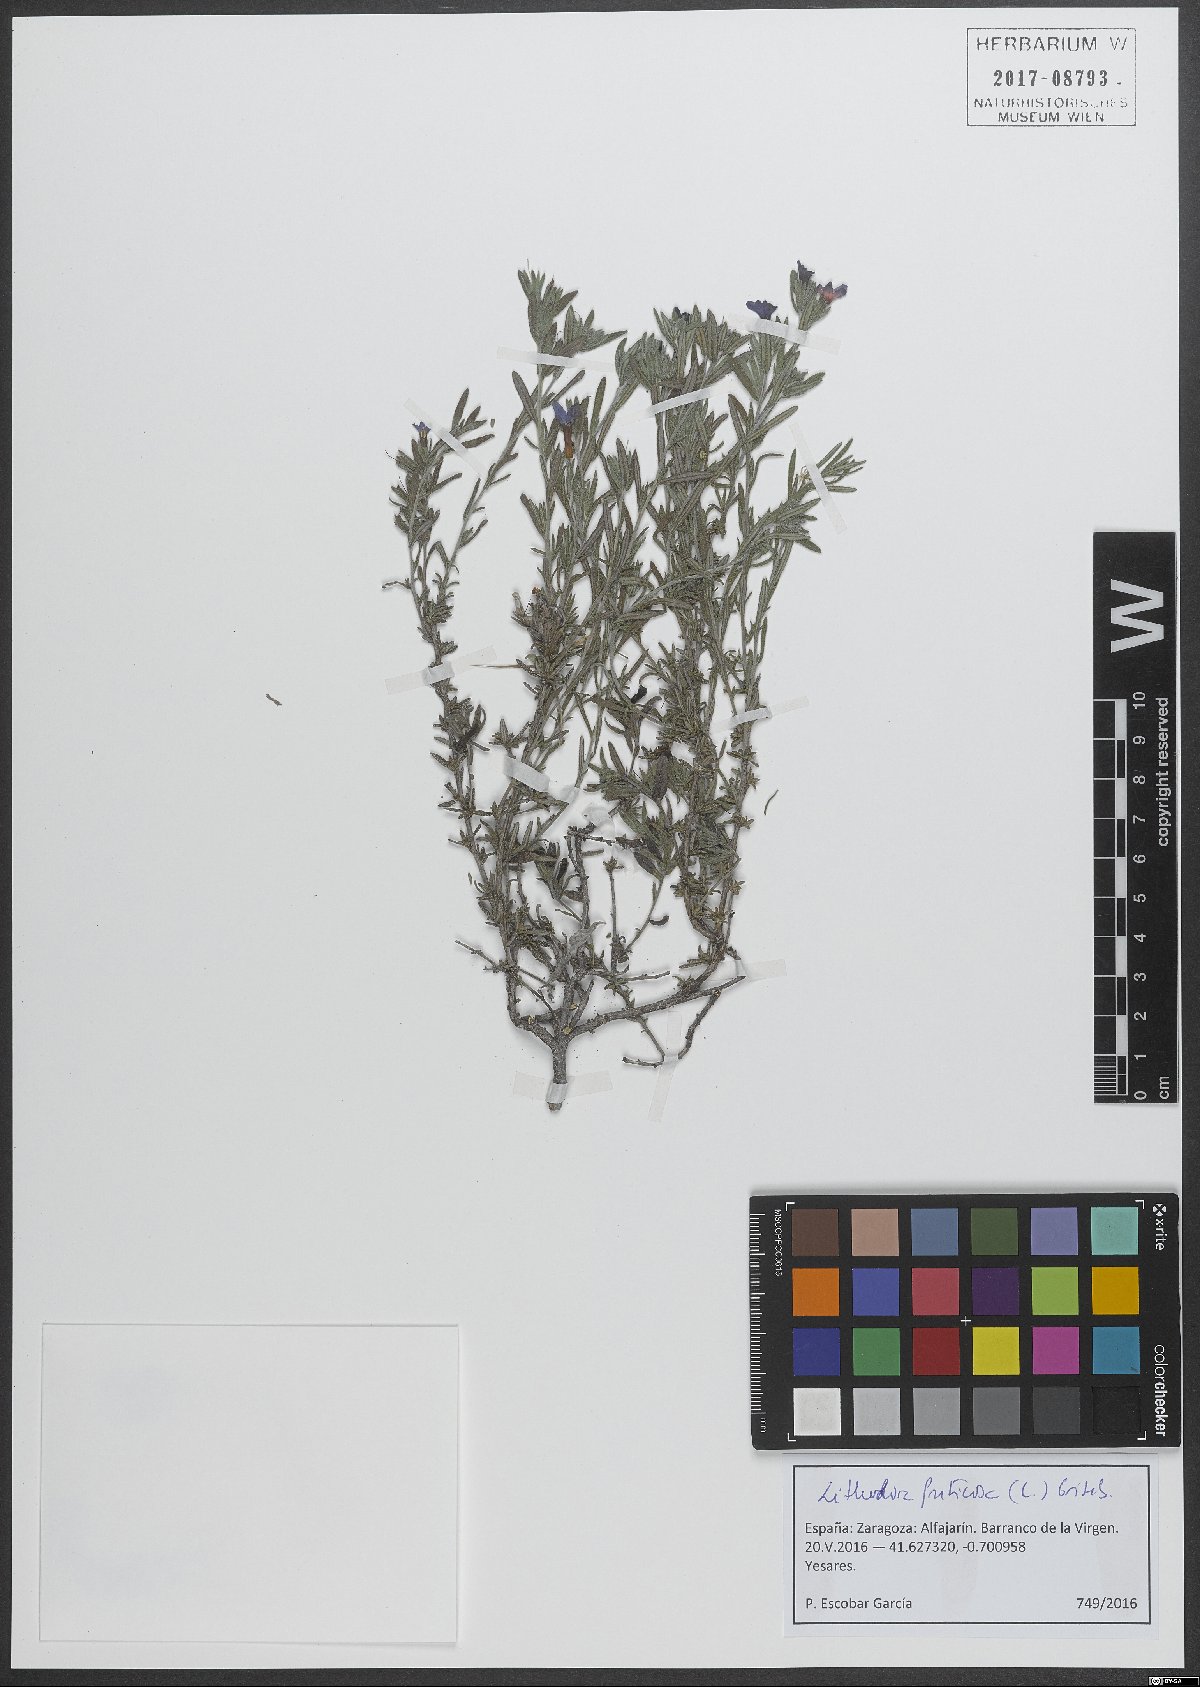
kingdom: Plantae
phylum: Tracheophyta
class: Magnoliopsida
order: Boraginales
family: Boraginaceae
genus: Lithodora
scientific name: Lithodora fruticosa
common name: Shrubby gromwell
